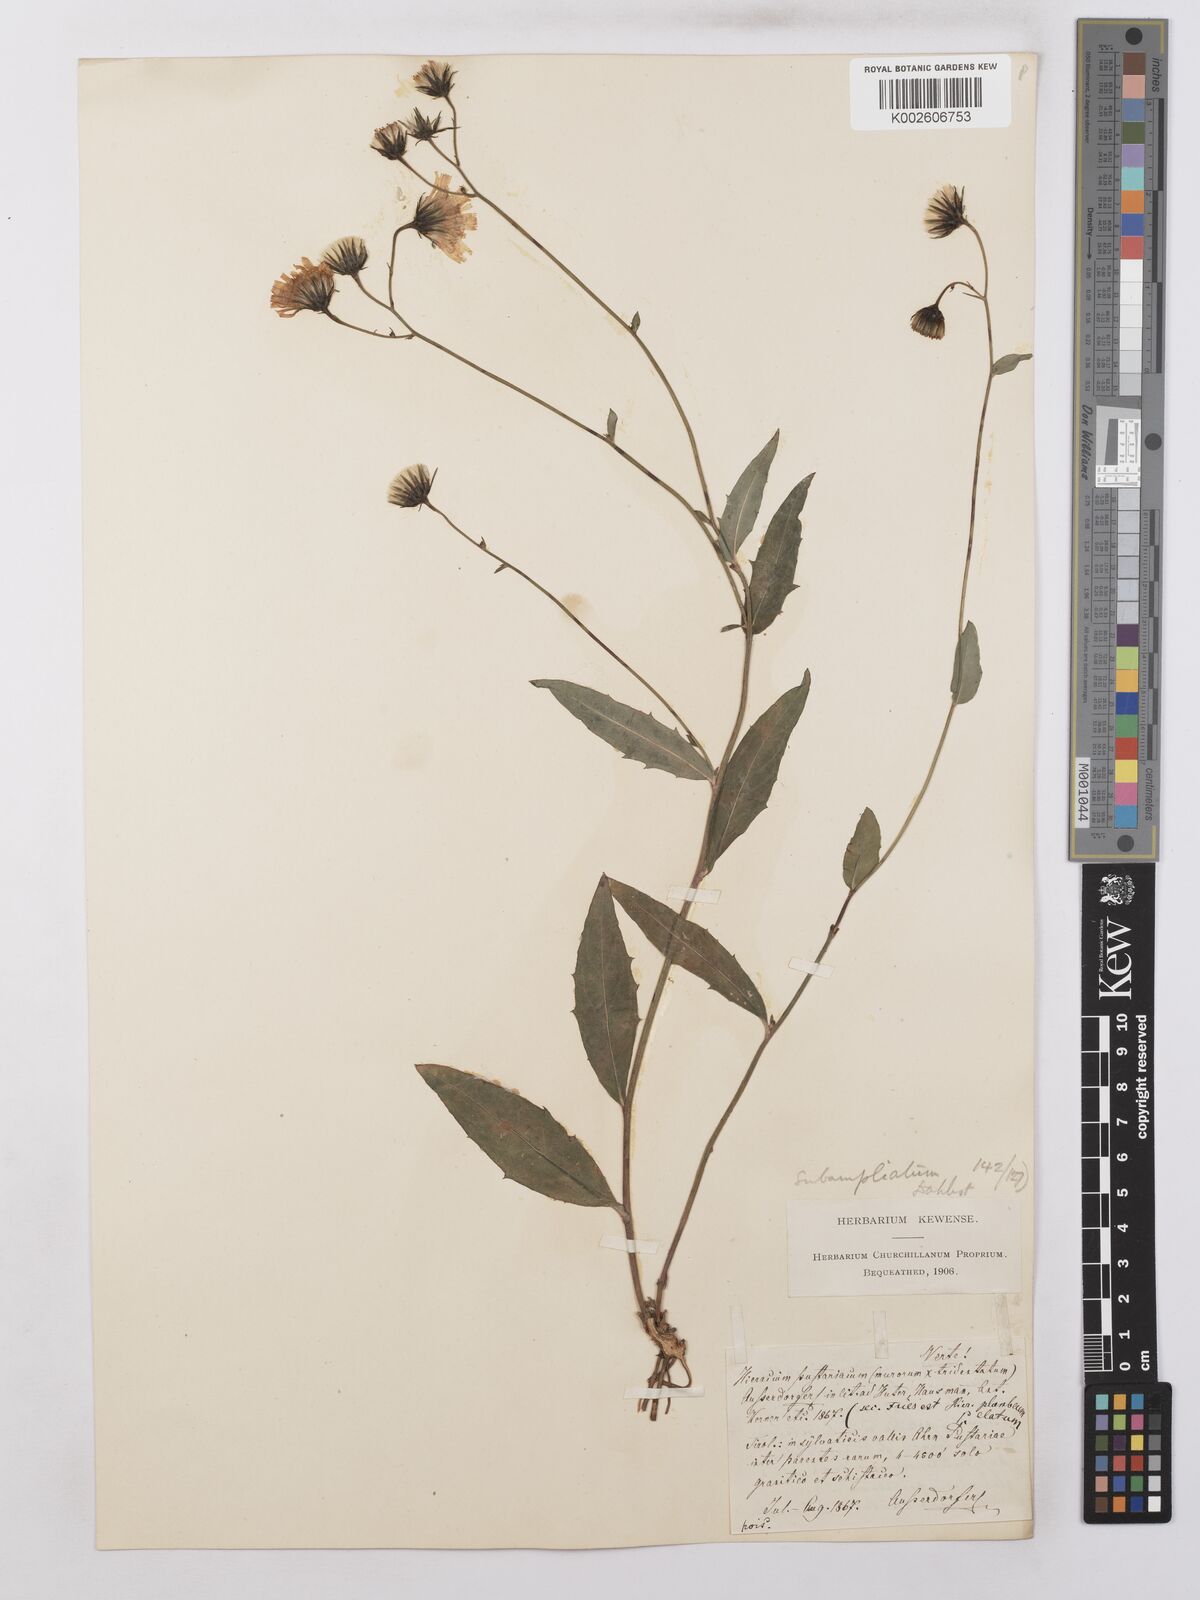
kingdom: Plantae
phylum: Tracheophyta
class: Magnoliopsida
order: Asterales
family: Asteraceae
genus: Hieracium
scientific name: Hieracium lachenalii
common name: Common hawkweed
